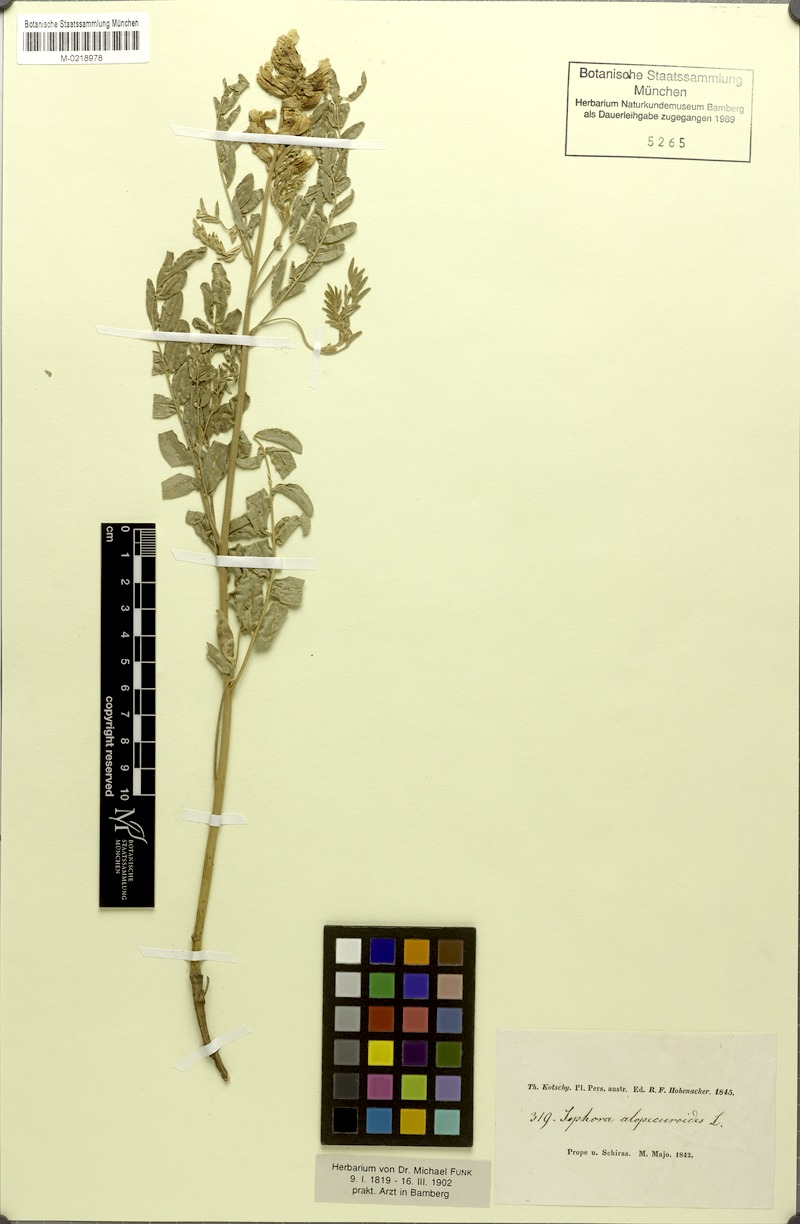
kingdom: Plantae
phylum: Tracheophyta
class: Magnoliopsida
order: Fabales
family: Fabaceae
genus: Sophora
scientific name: Sophora alopecuroides
